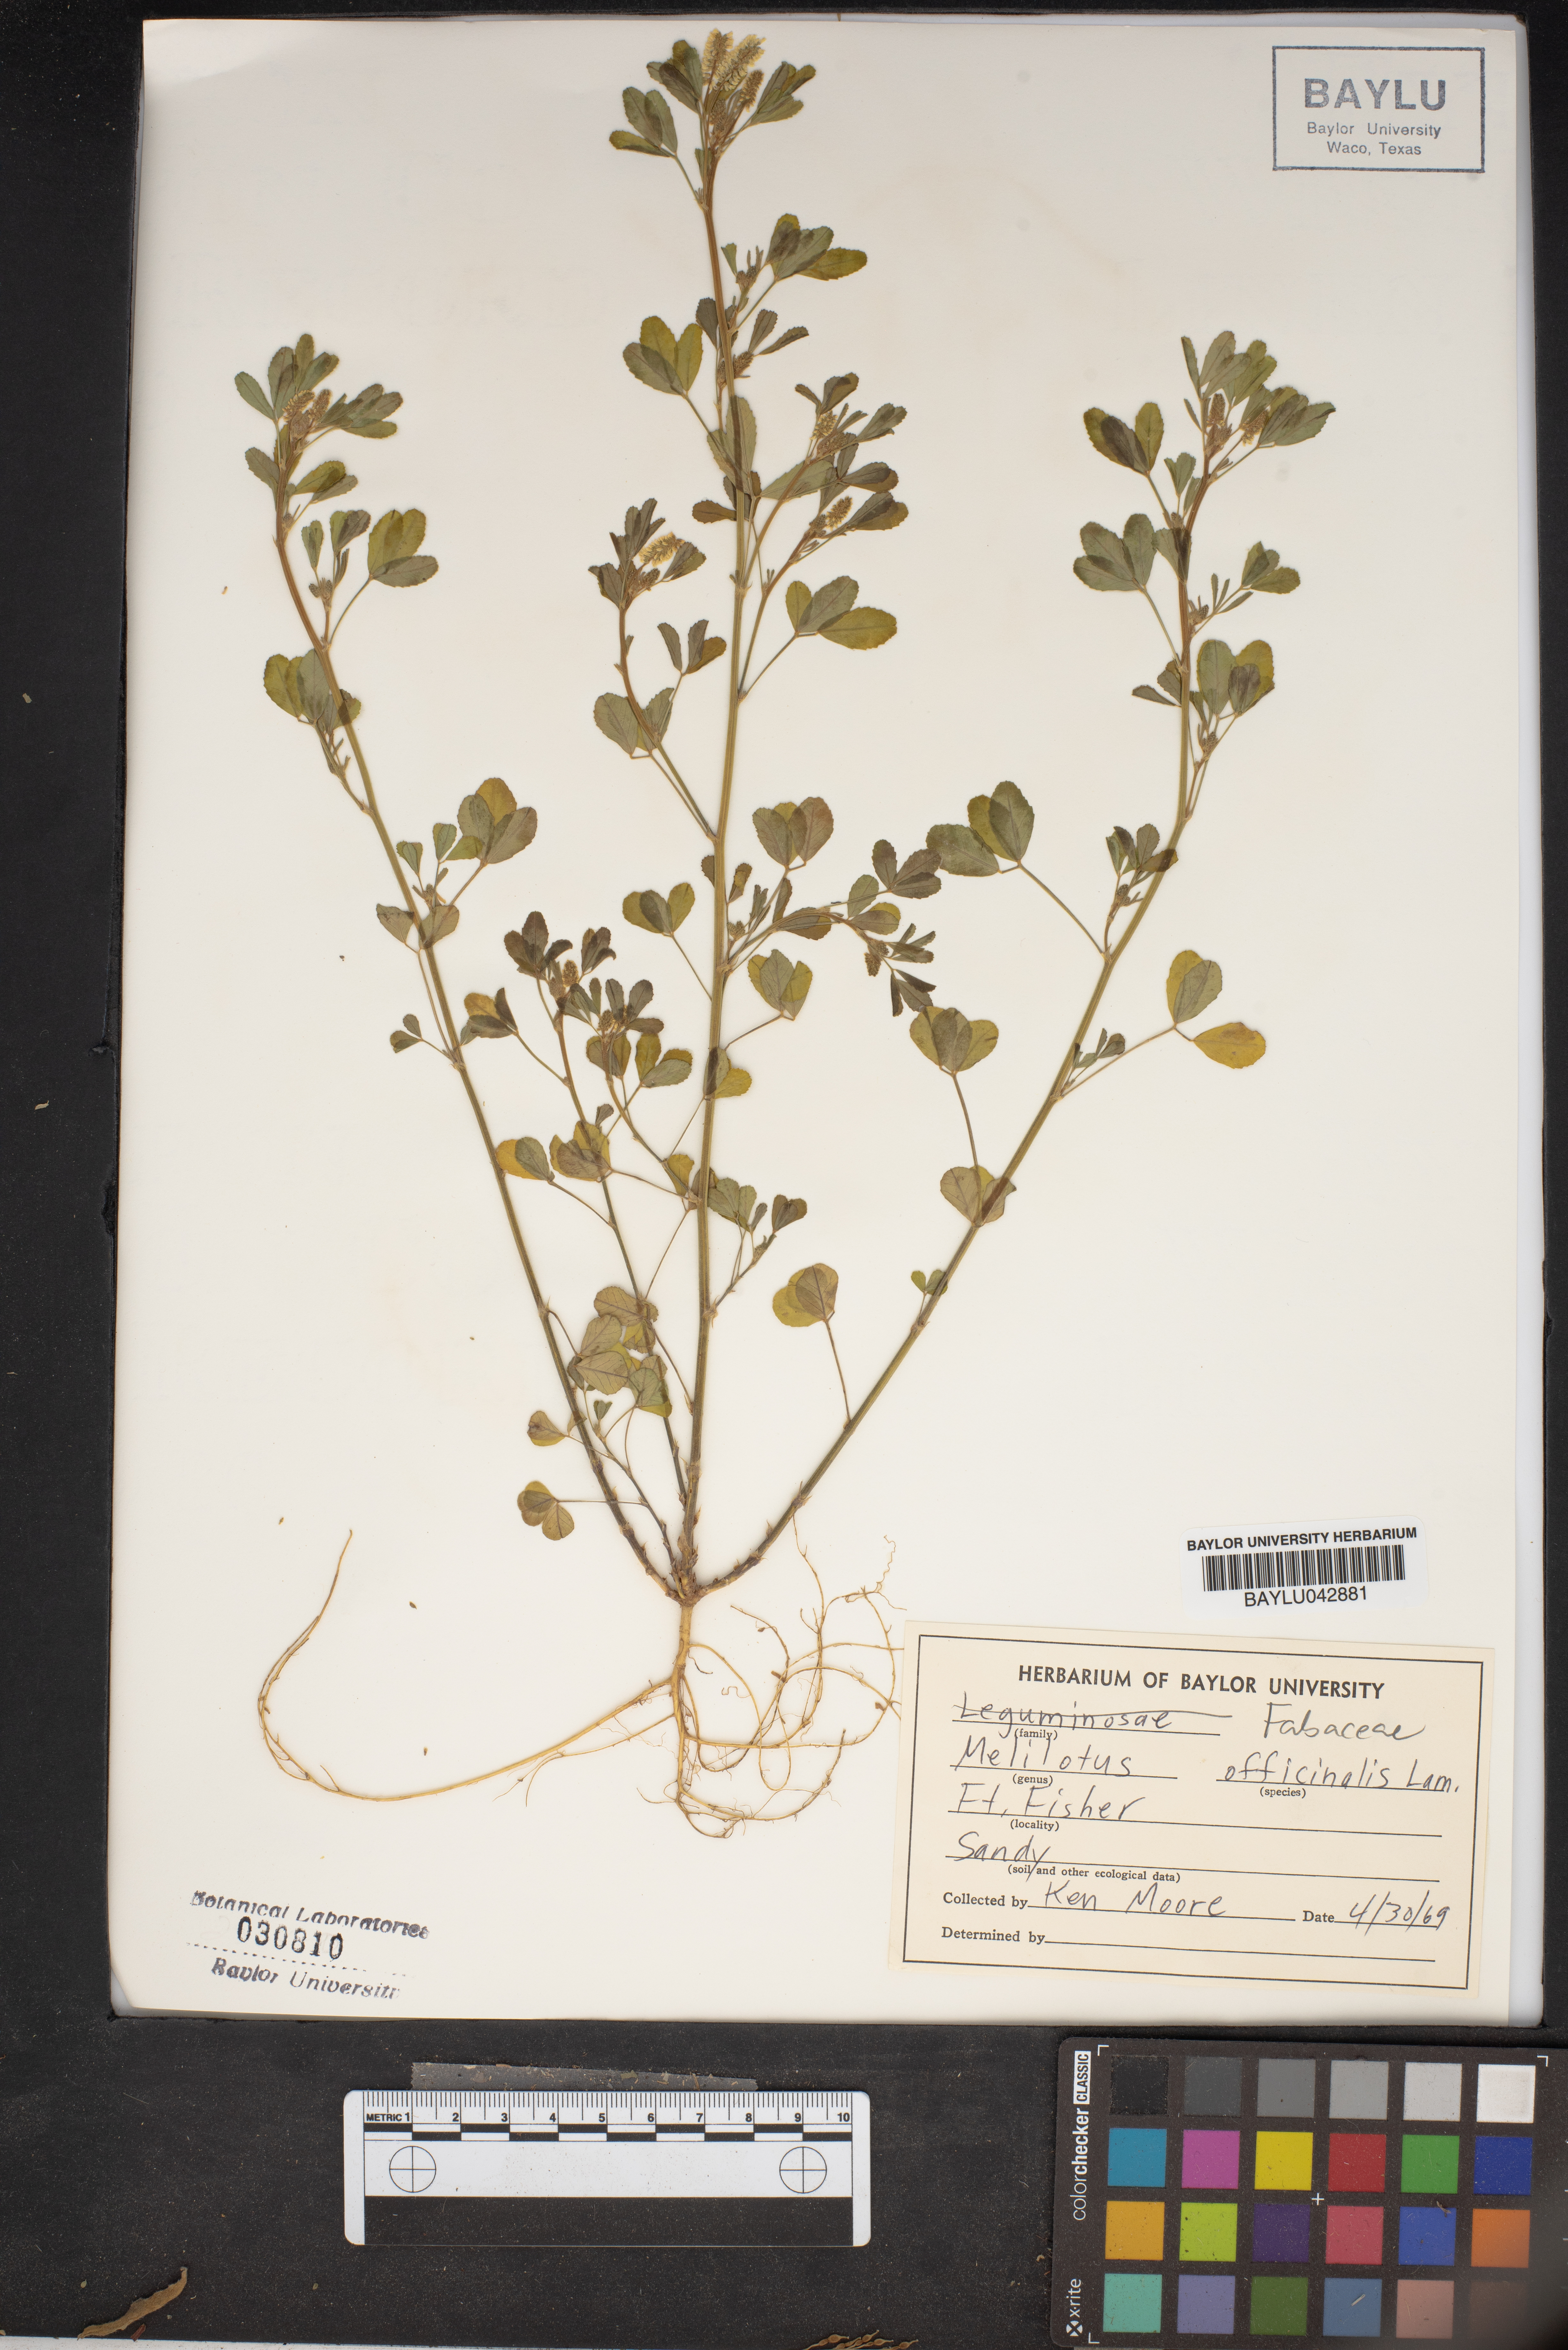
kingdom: Plantae
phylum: Tracheophyta
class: Magnoliopsida
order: Fabales
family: Fabaceae
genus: Melilotus
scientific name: Melilotus officinalis
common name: Sweetclover
